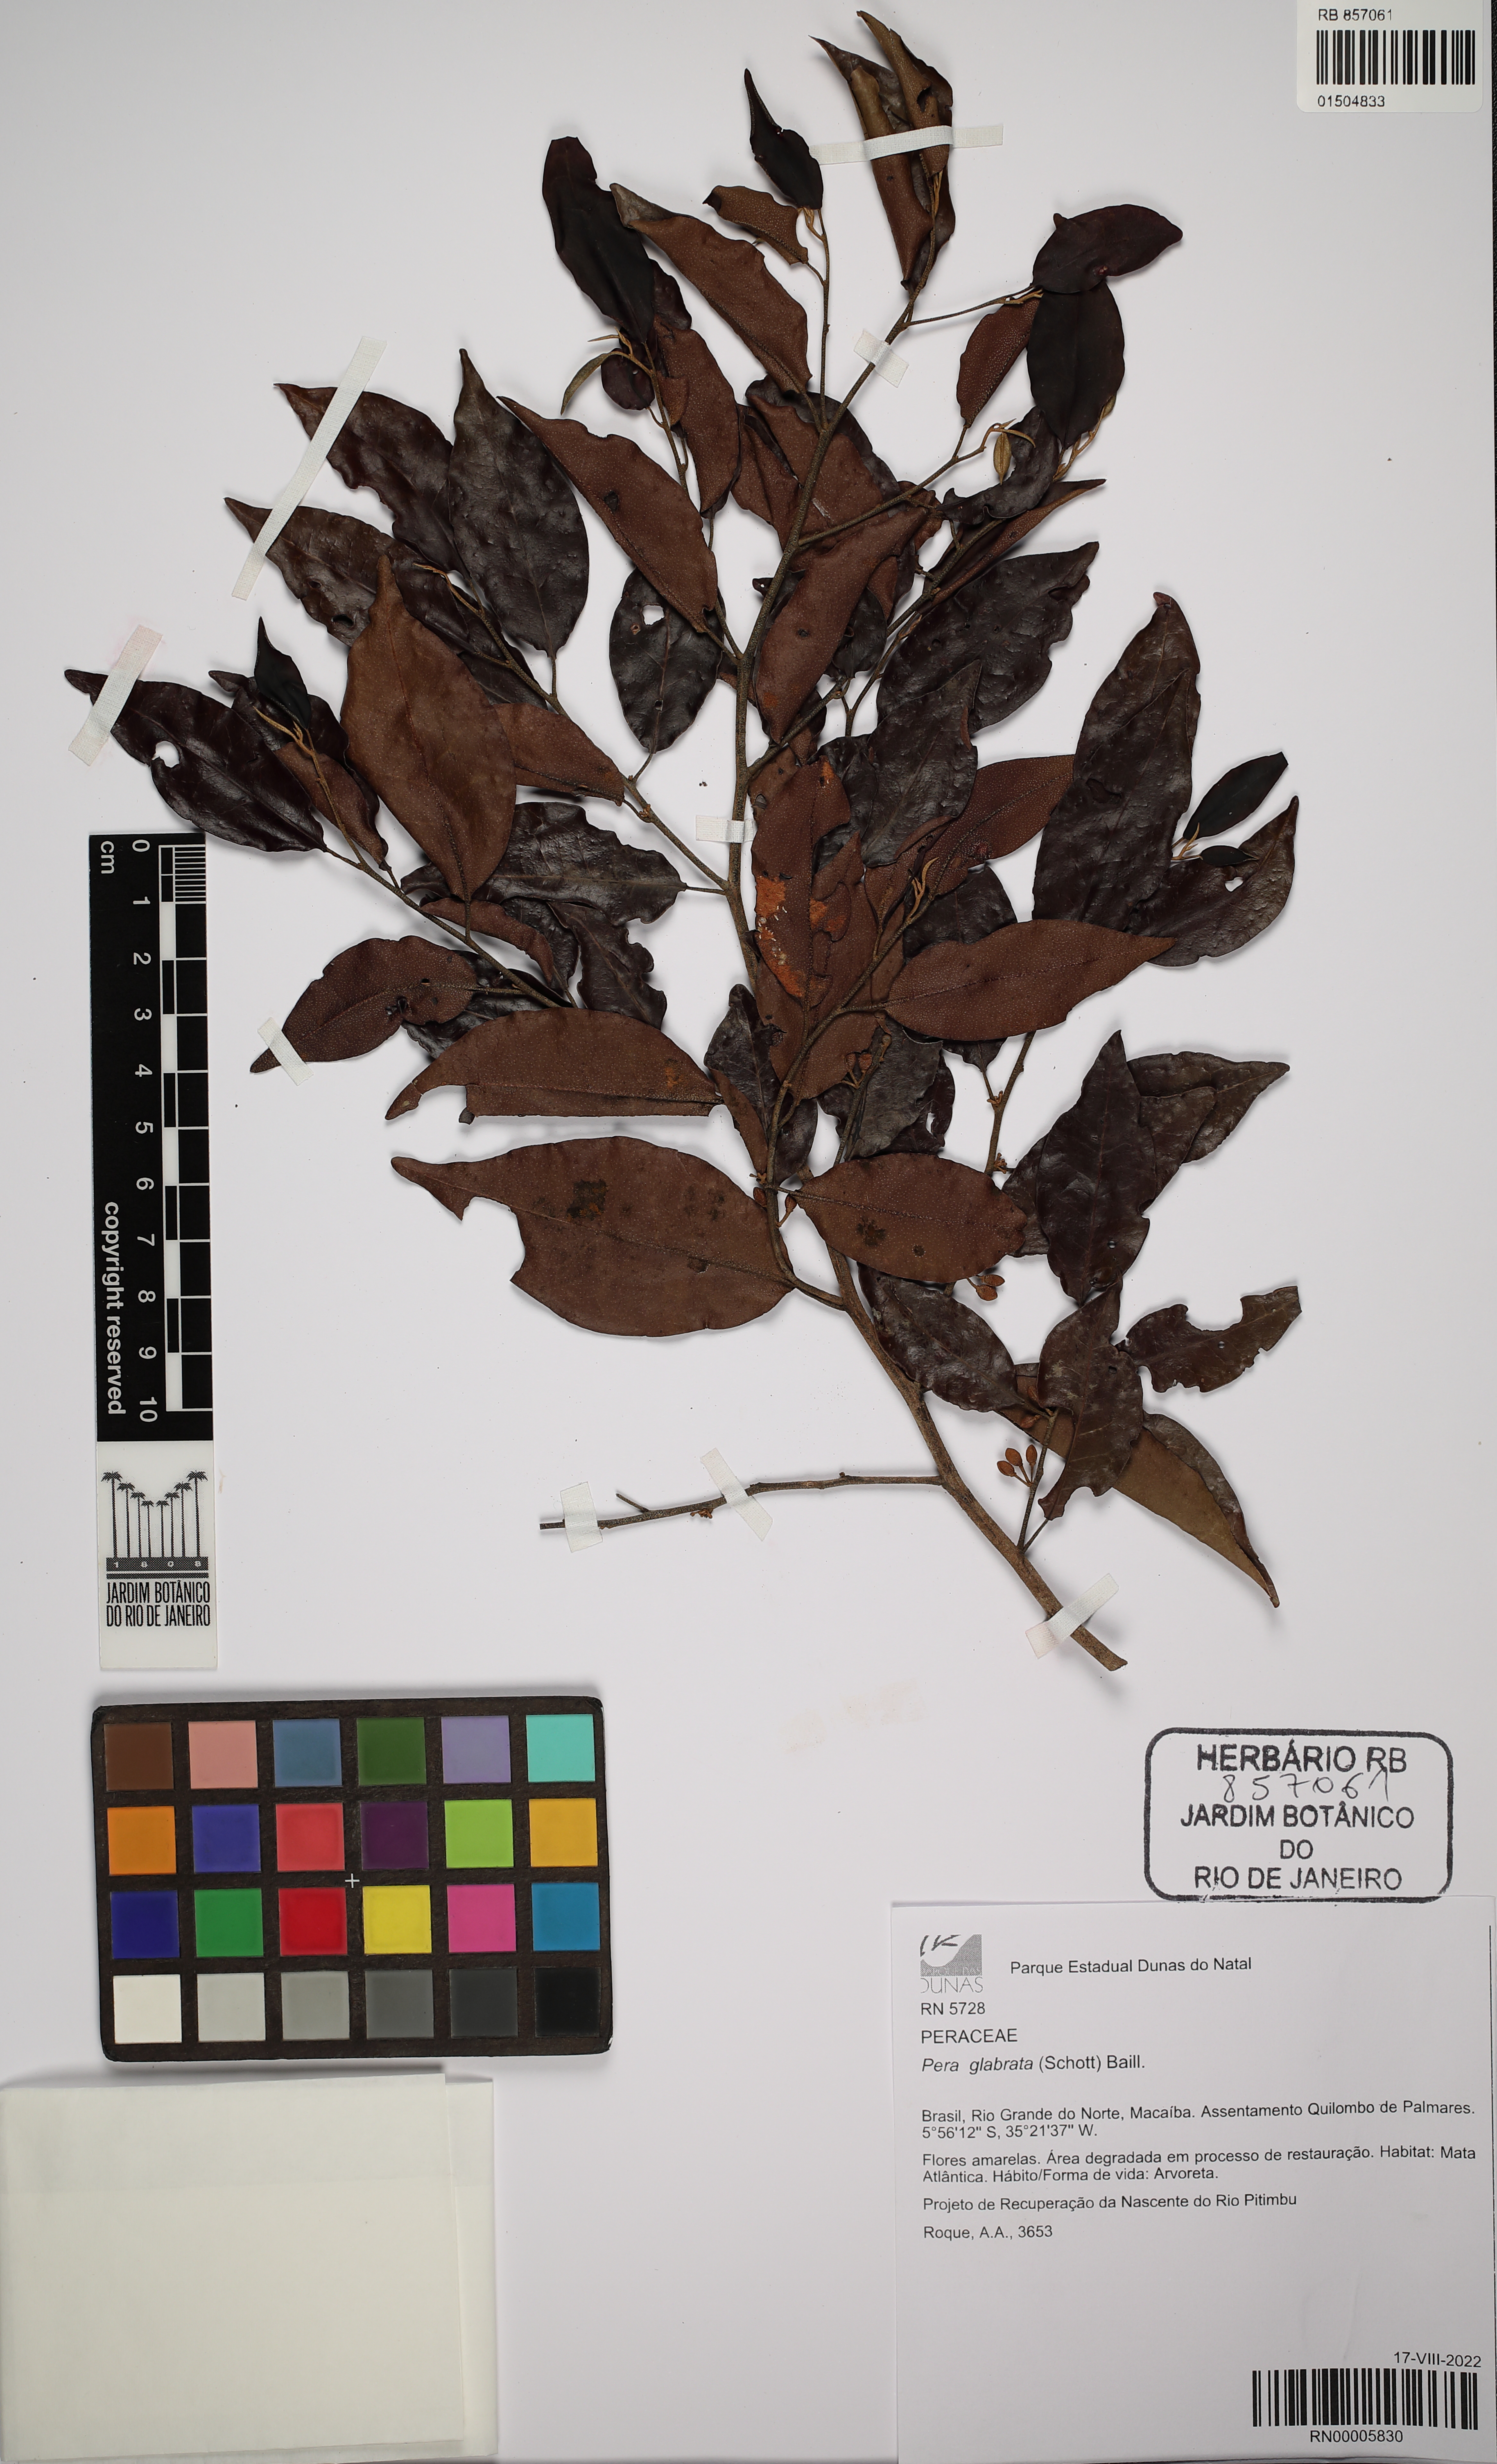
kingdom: Plantae
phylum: Tracheophyta
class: Magnoliopsida
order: Malpighiales
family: Peraceae
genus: Pera
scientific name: Pera glabrata
